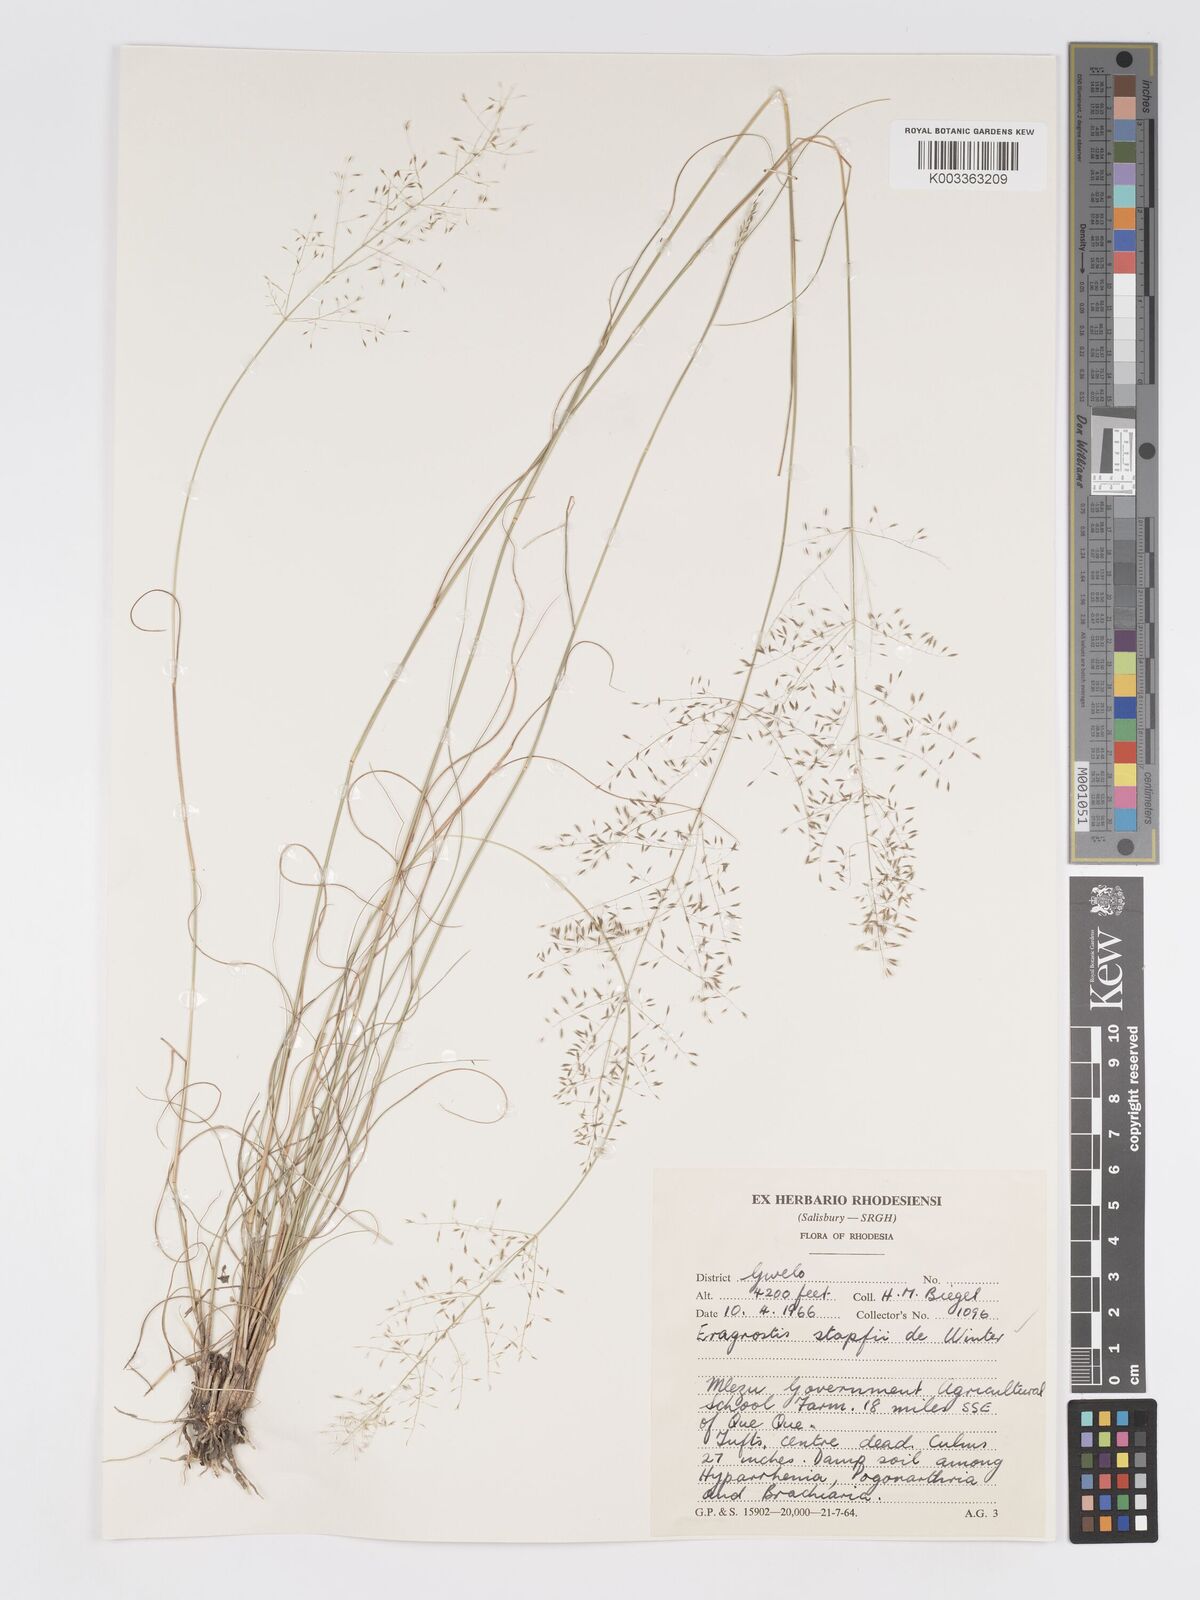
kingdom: Plantae
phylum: Tracheophyta
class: Liliopsida
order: Poales
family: Poaceae
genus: Eragrostis
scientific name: Eragrostis stapfii
